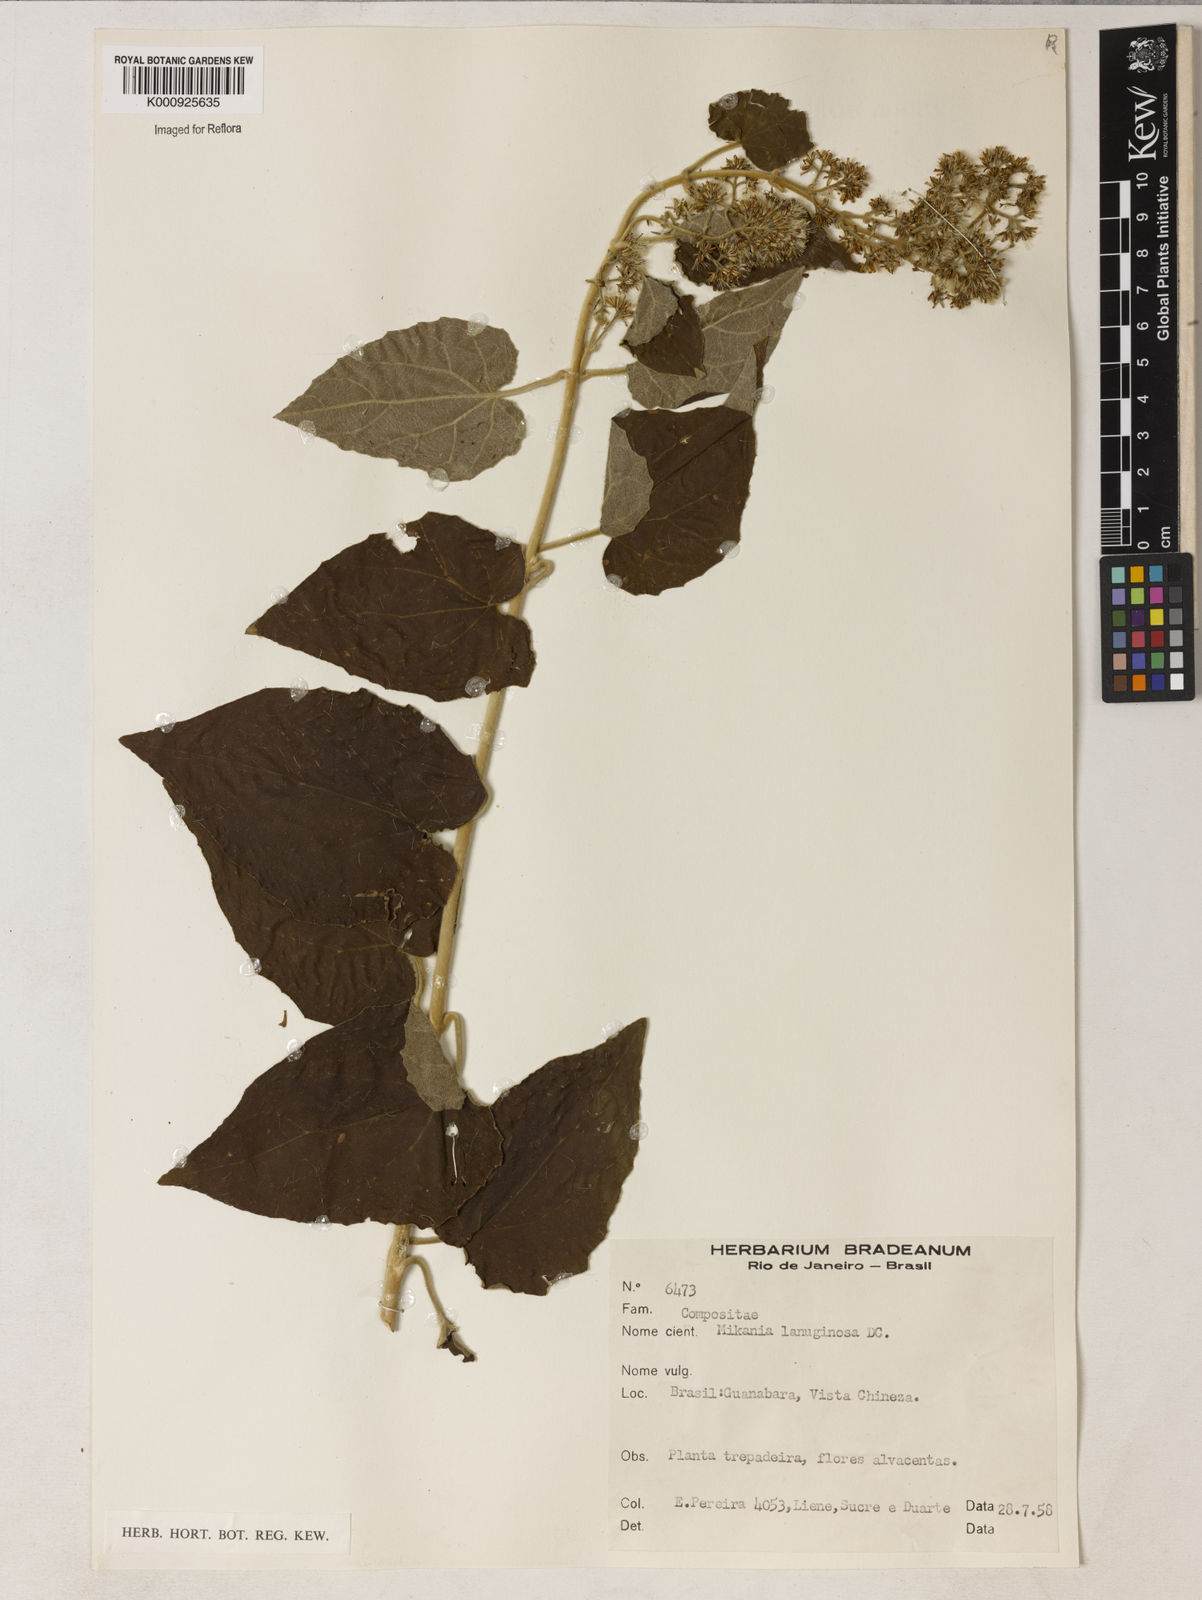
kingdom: Plantae
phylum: Tracheophyta
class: Magnoliopsida
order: Asterales
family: Asteraceae
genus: Mikania
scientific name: Mikania laevigata
